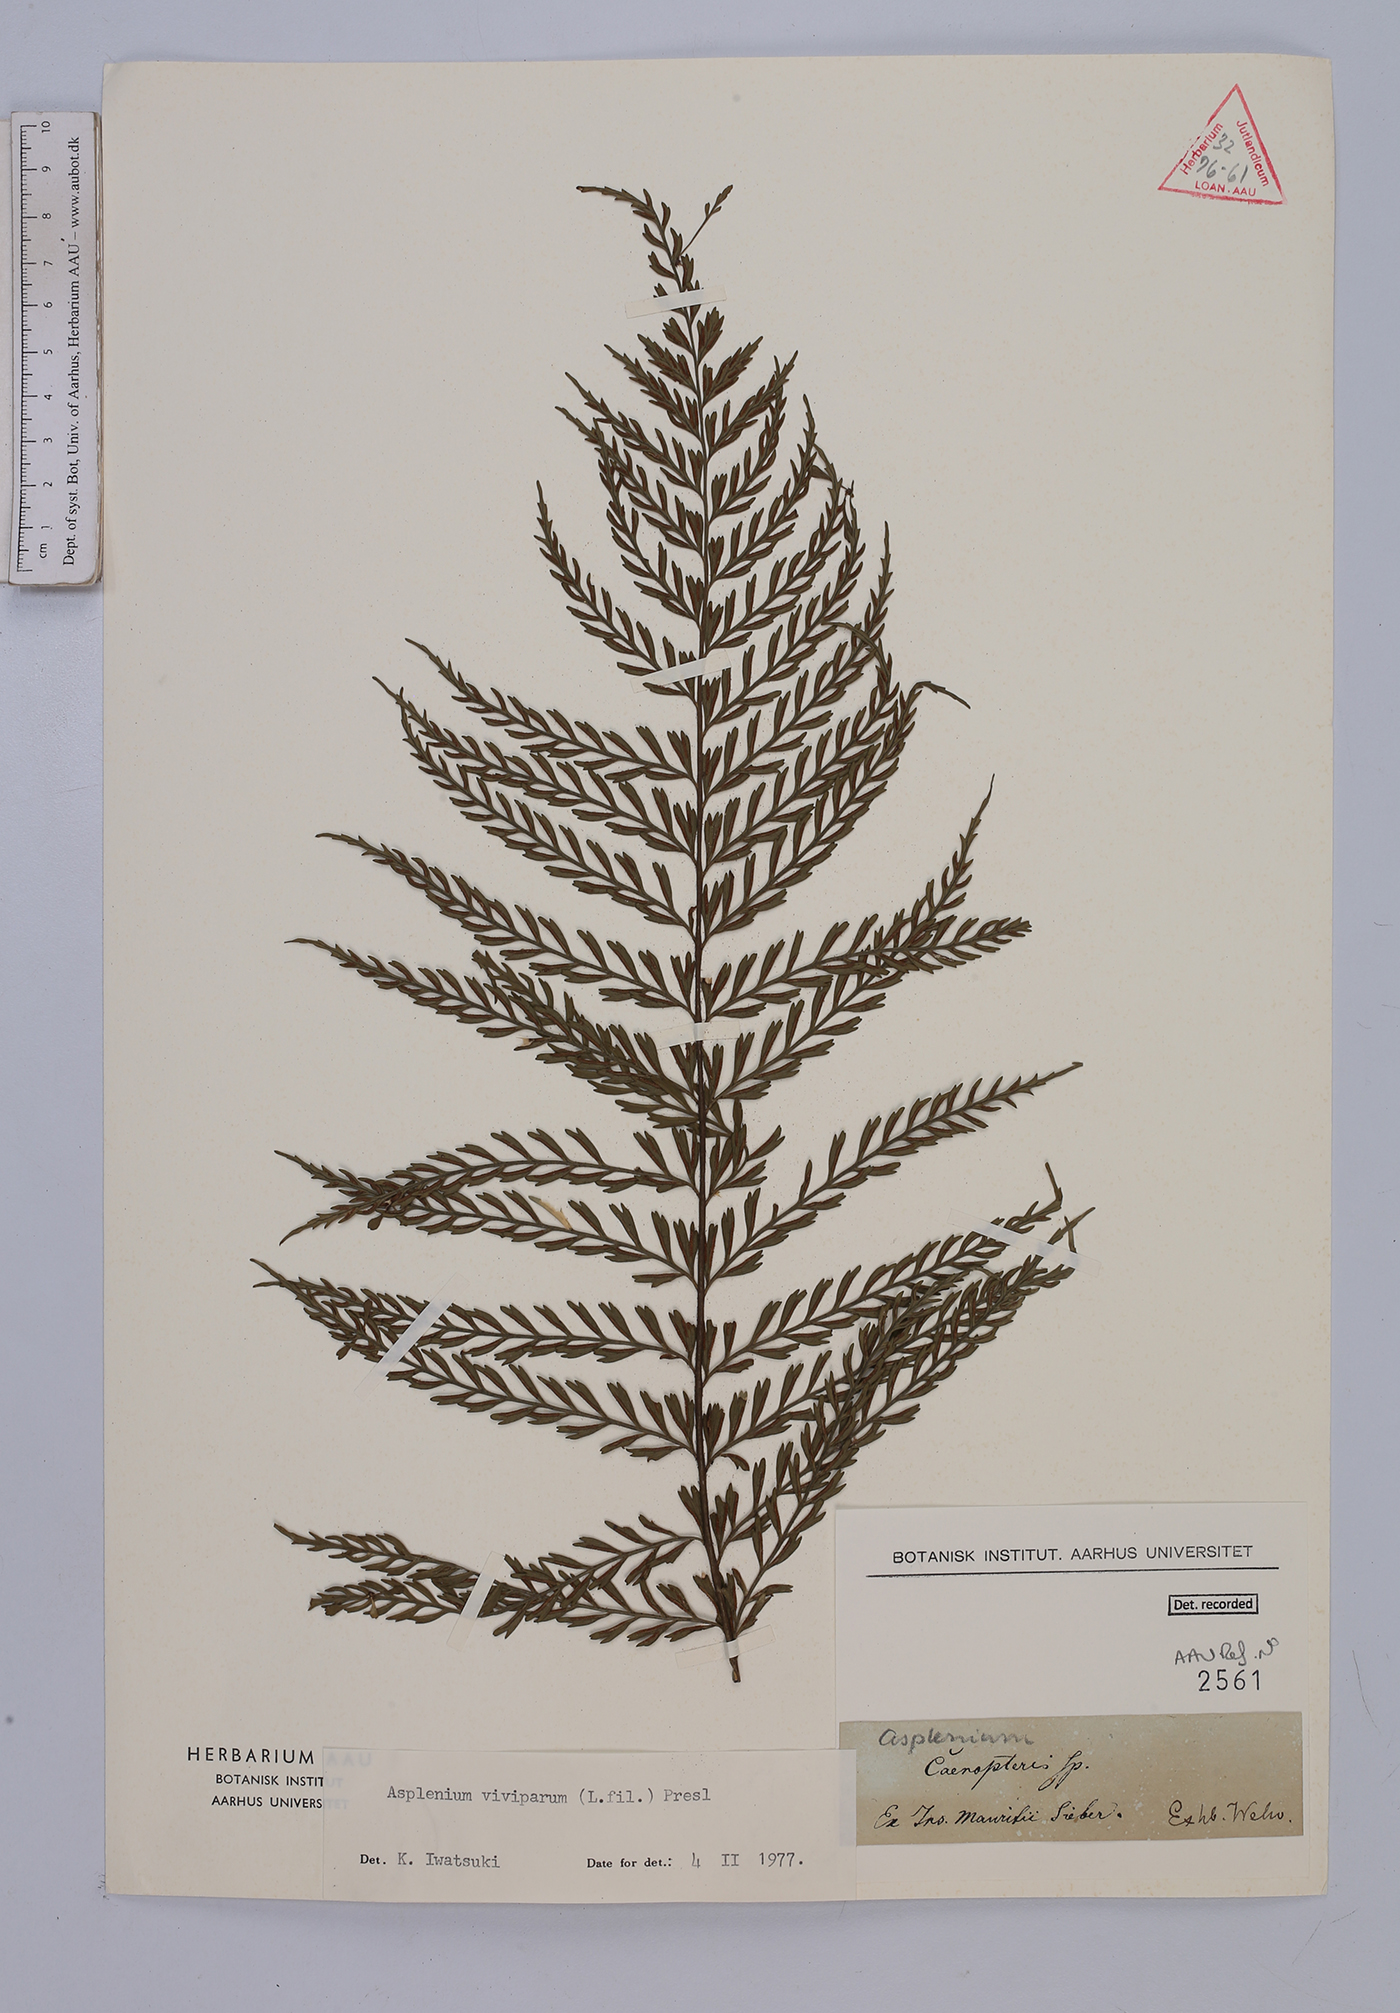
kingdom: Plantae
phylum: Tracheophyta
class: Polypodiopsida
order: Polypodiales
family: Aspleniaceae
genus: Asplenium
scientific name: Asplenium viviparioides
